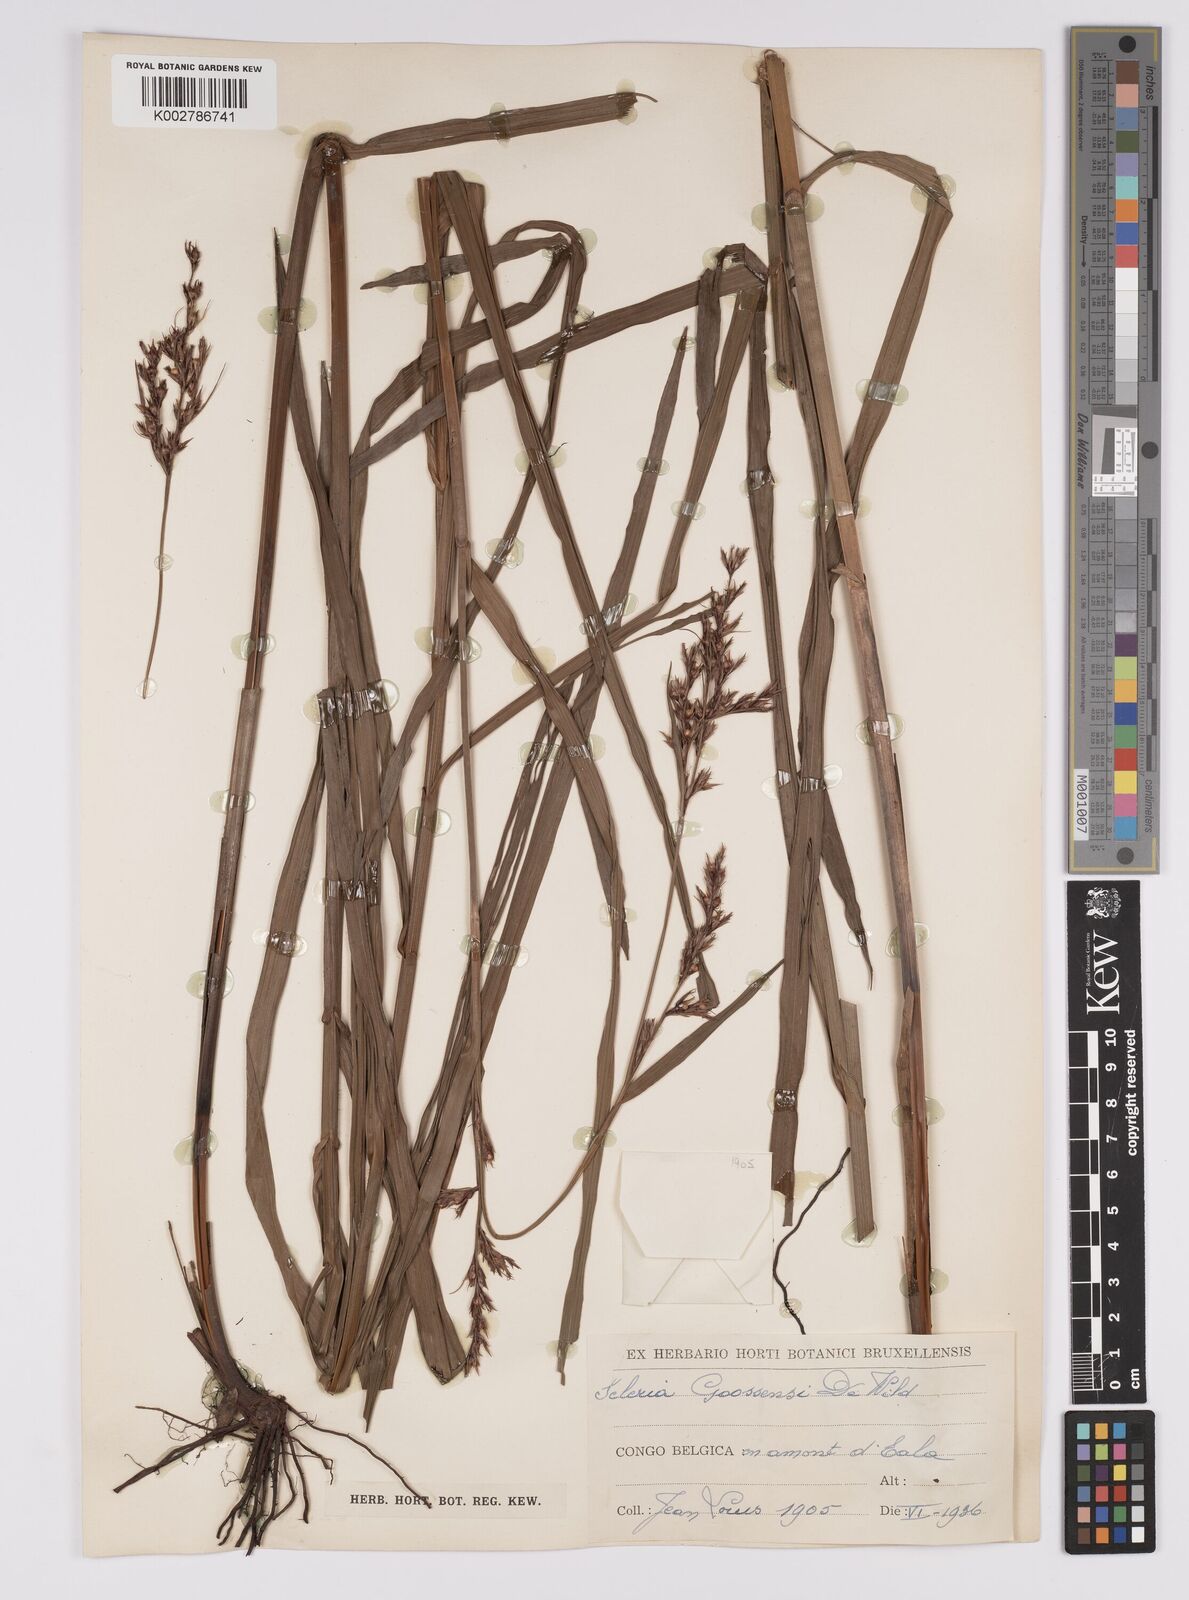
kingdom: Plantae
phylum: Tracheophyta
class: Liliopsida
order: Poales
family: Cyperaceae
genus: Scleria
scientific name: Scleria goossensii
